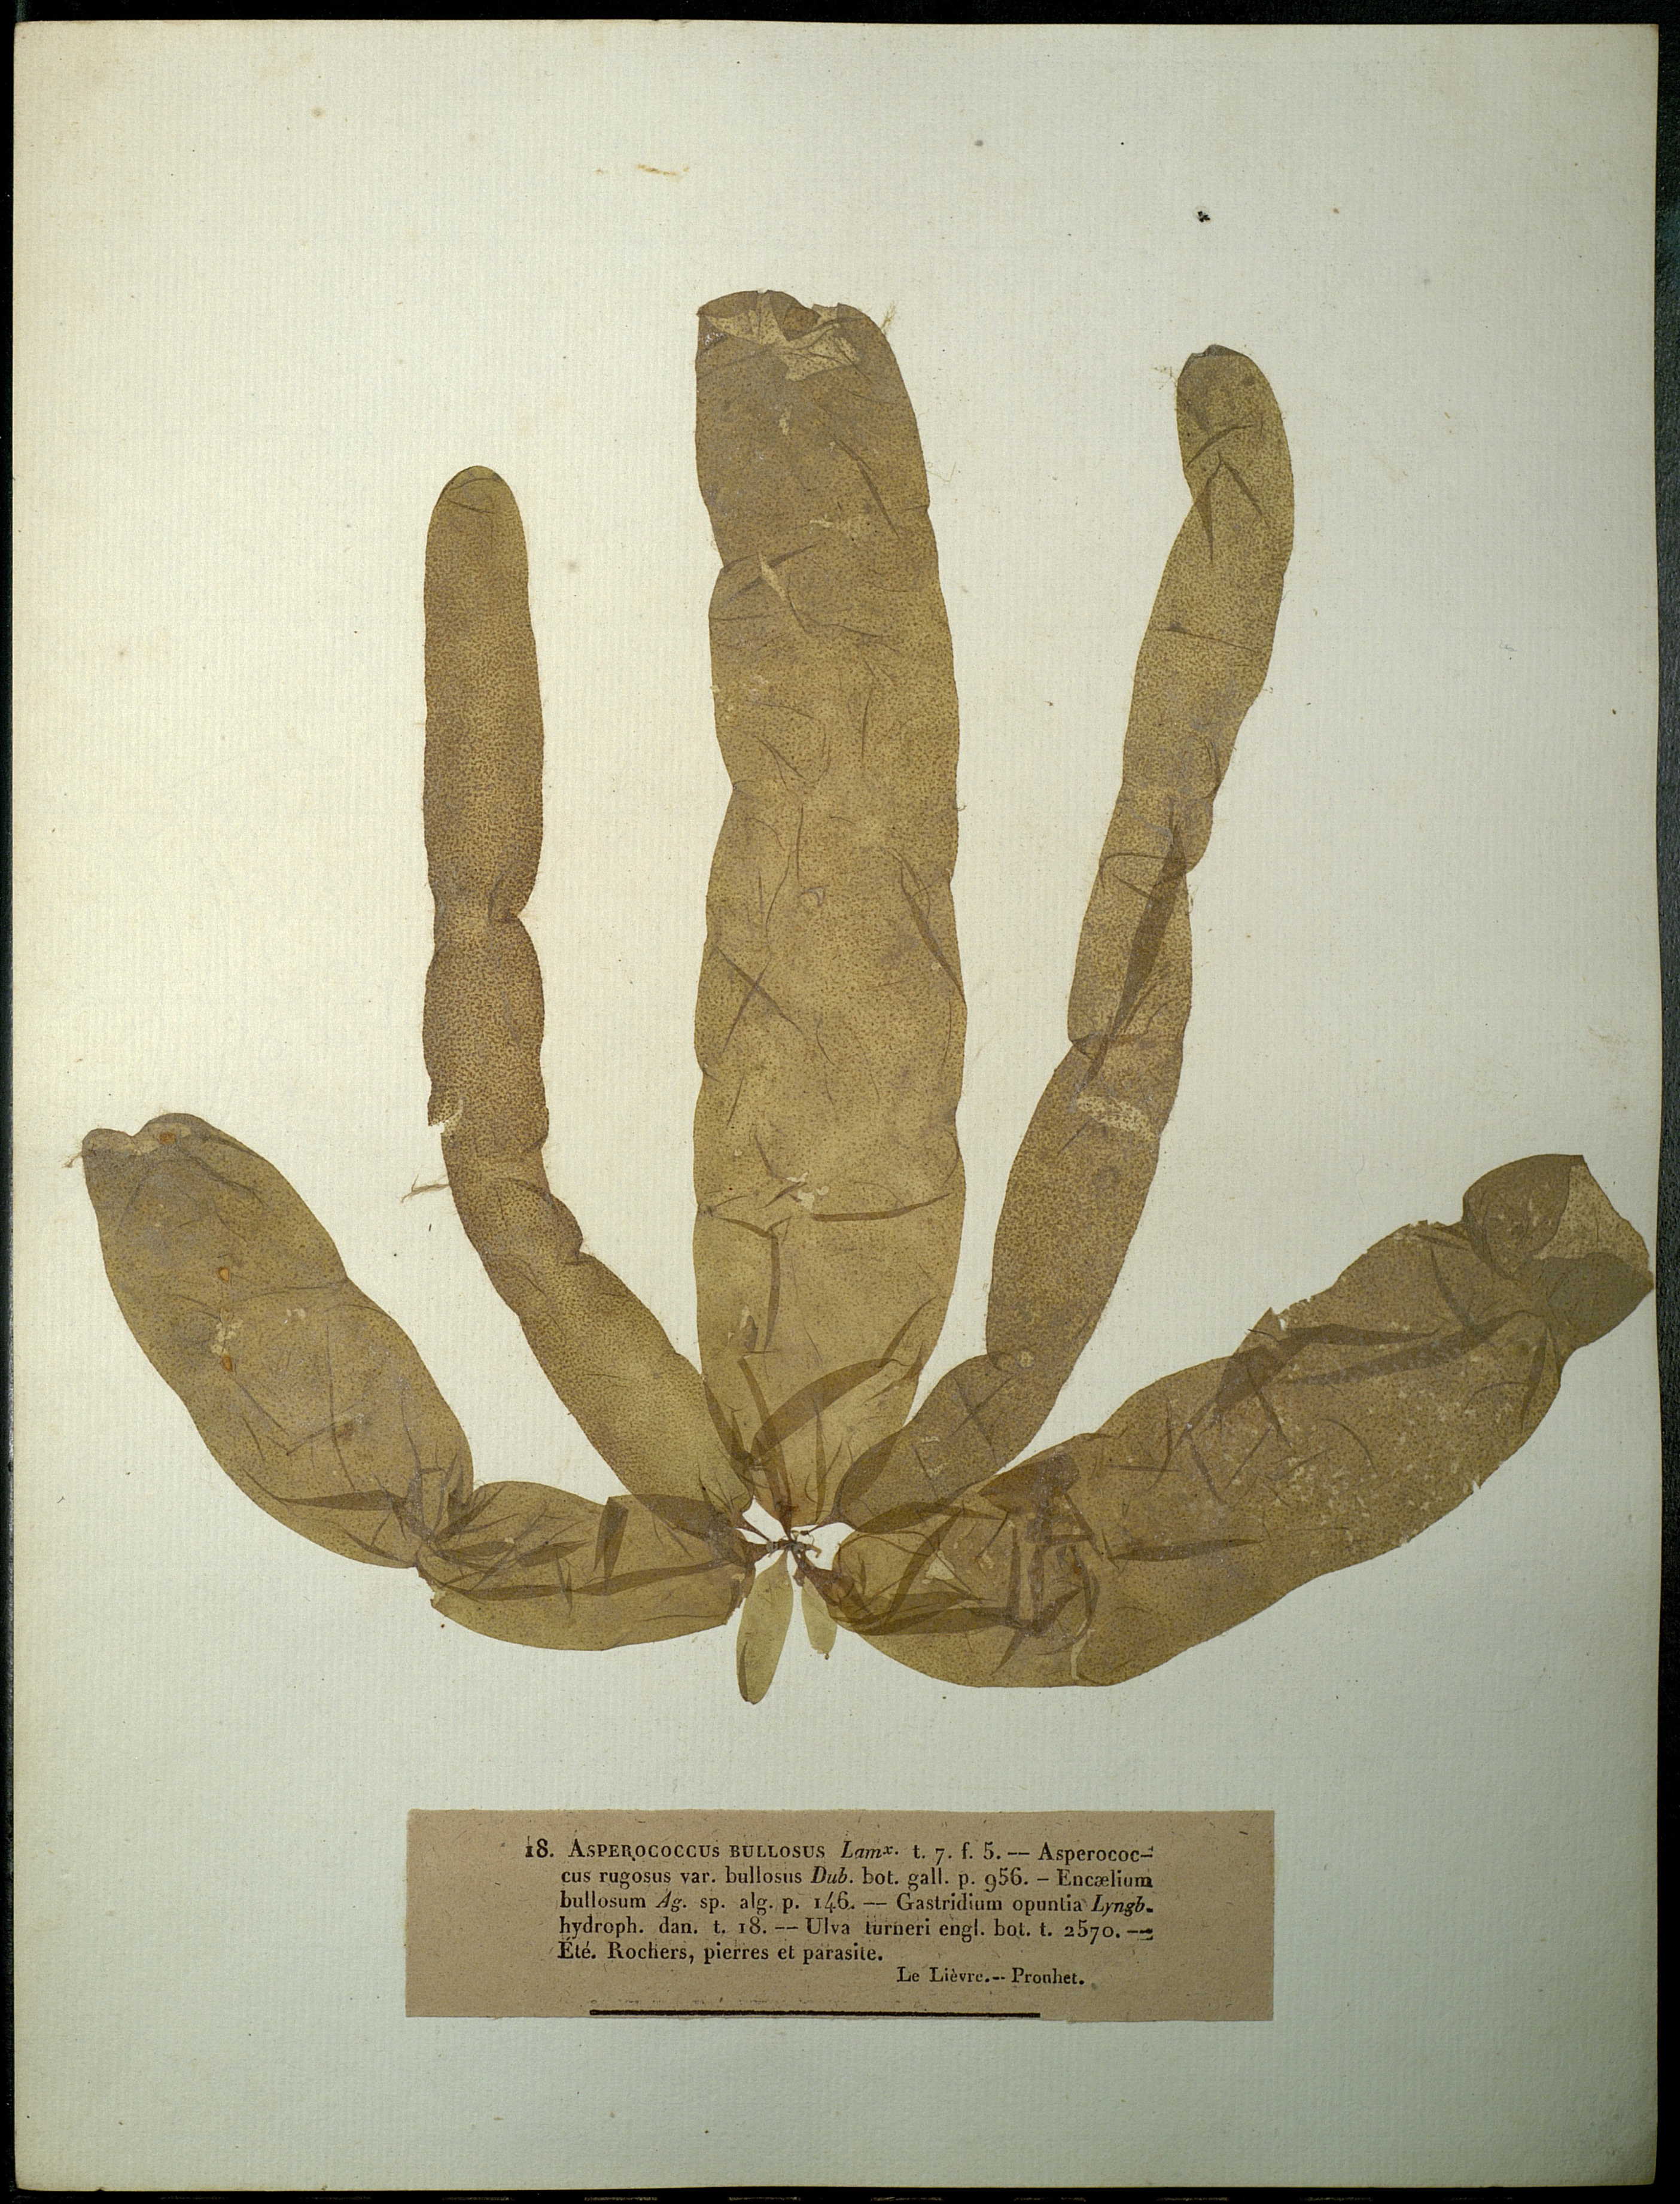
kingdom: Chromista
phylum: Ochrophyta
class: Phaeophyceae
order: Ectocarpales
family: Chordariaceae
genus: Asperococcus
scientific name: Asperococcus bullosus
